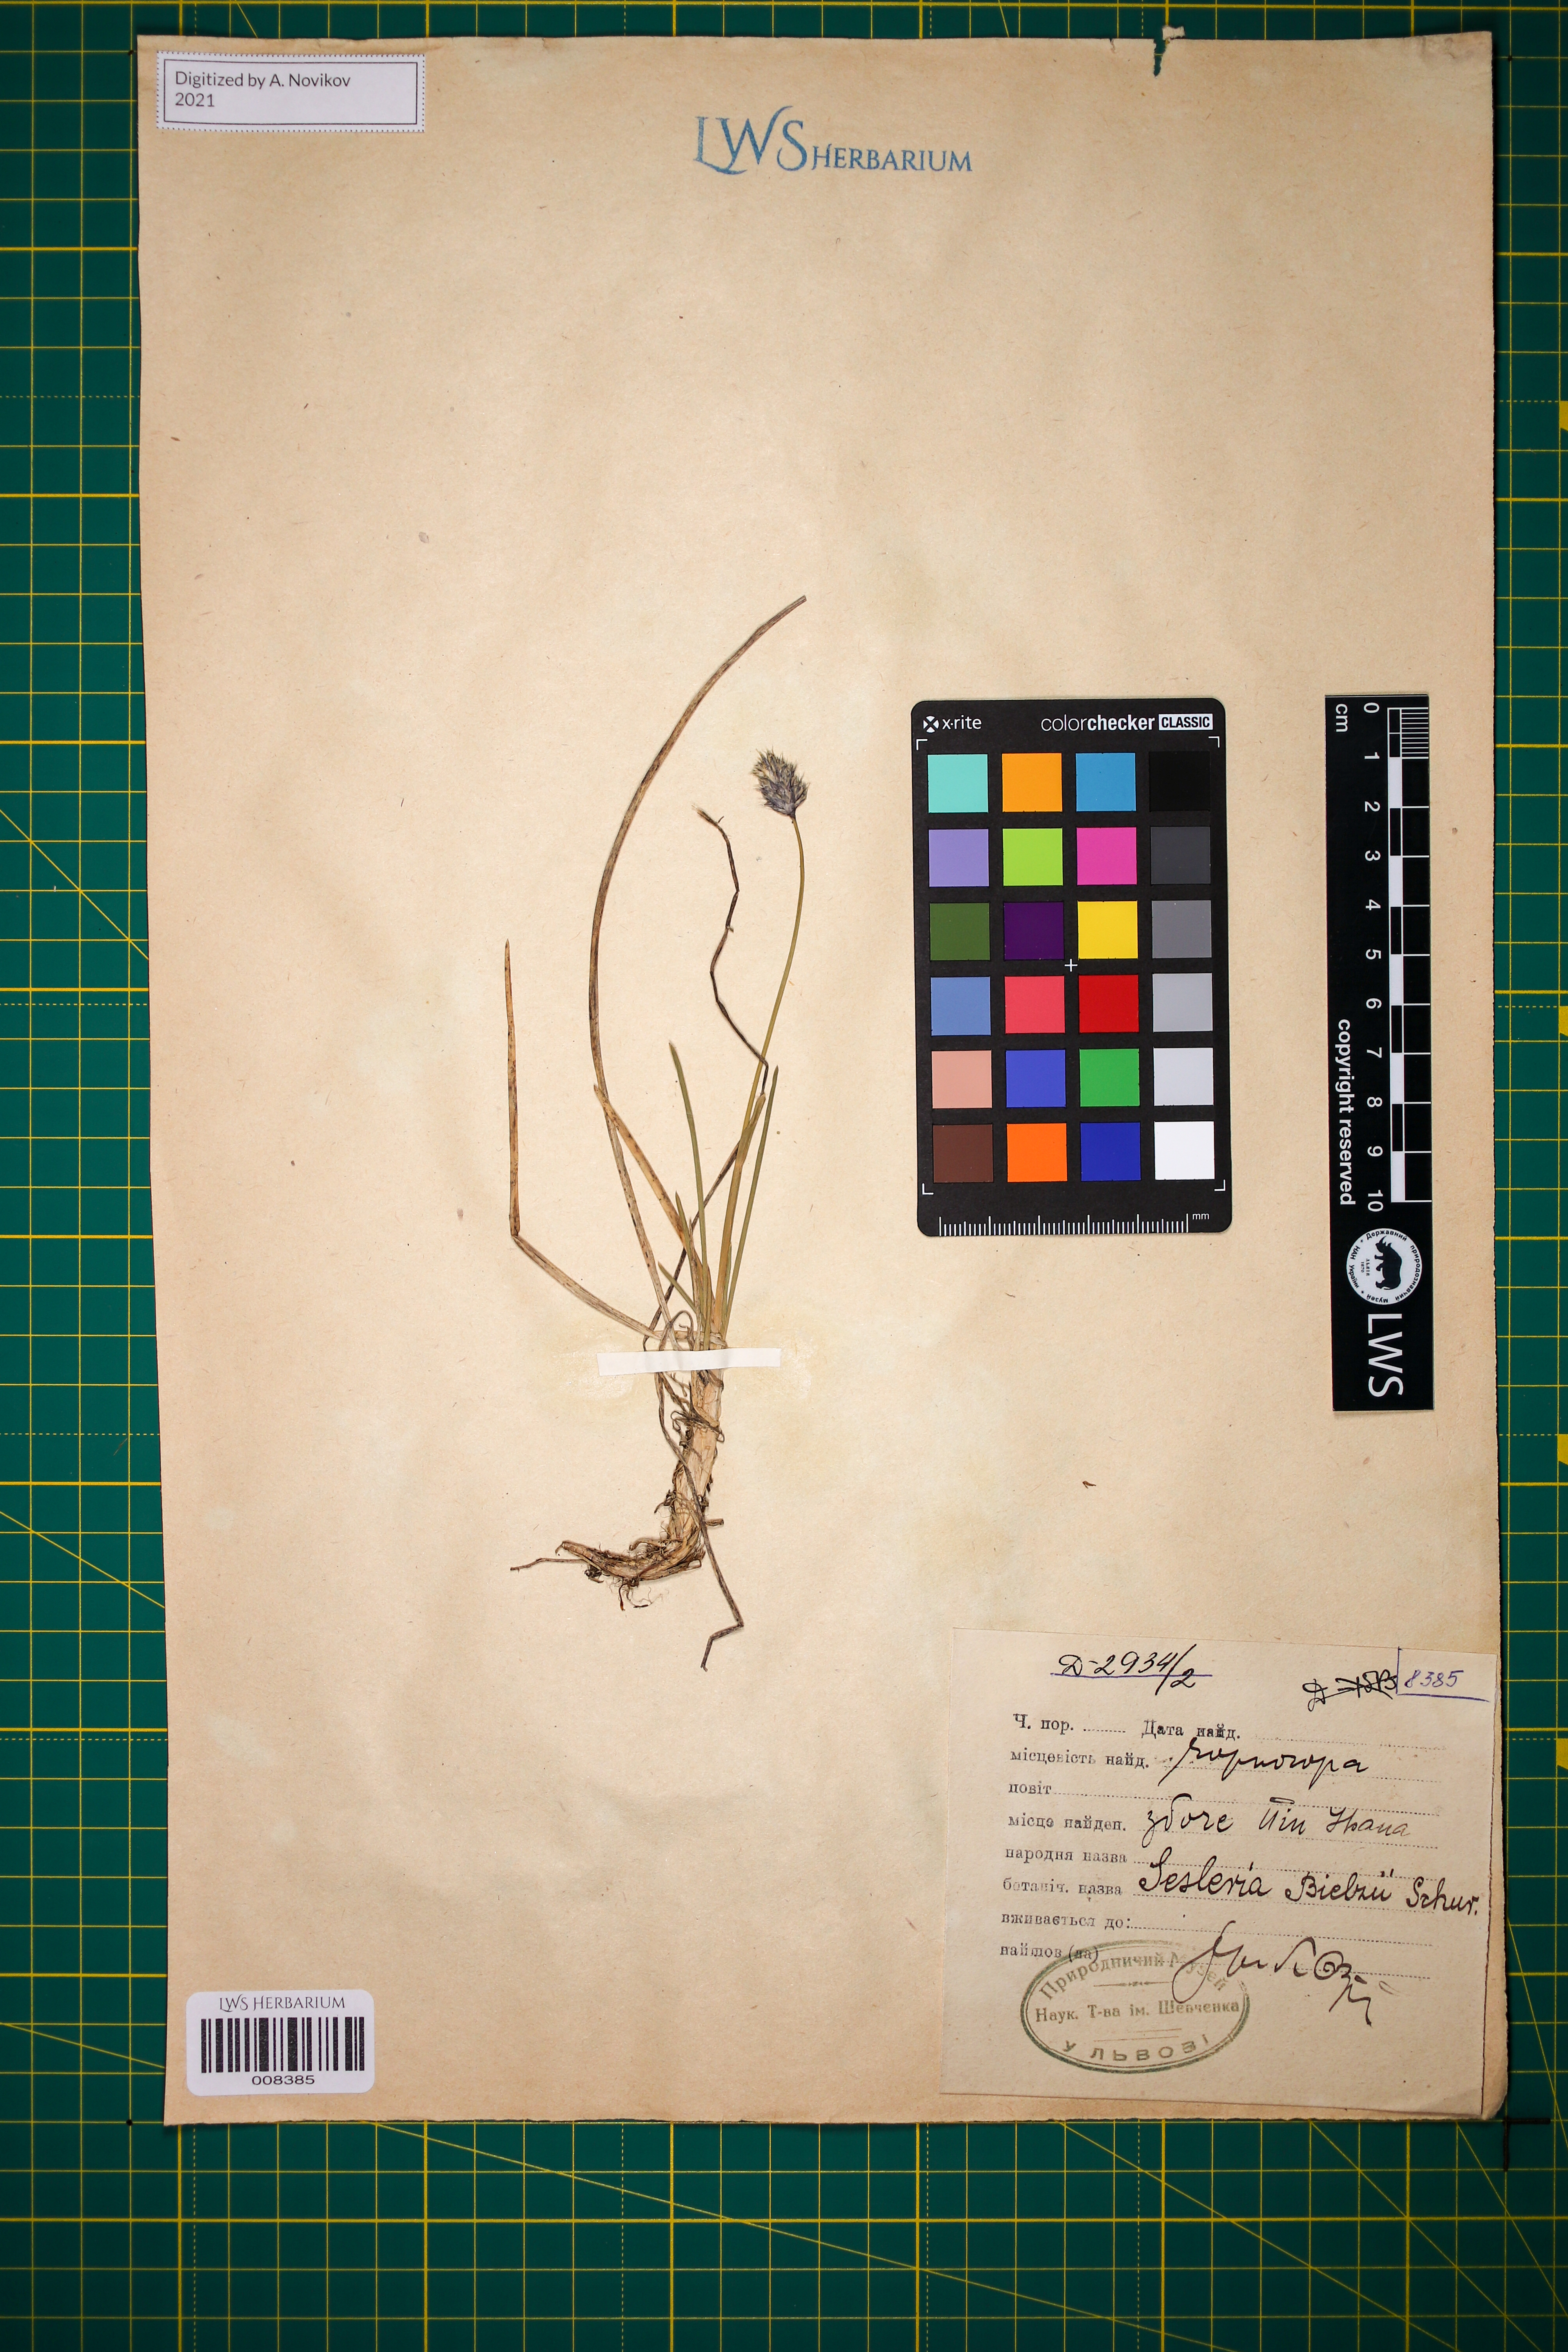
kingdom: Plantae
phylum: Tracheophyta
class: Liliopsida
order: Poales
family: Poaceae
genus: Sesleria
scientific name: Sesleria bielzii
